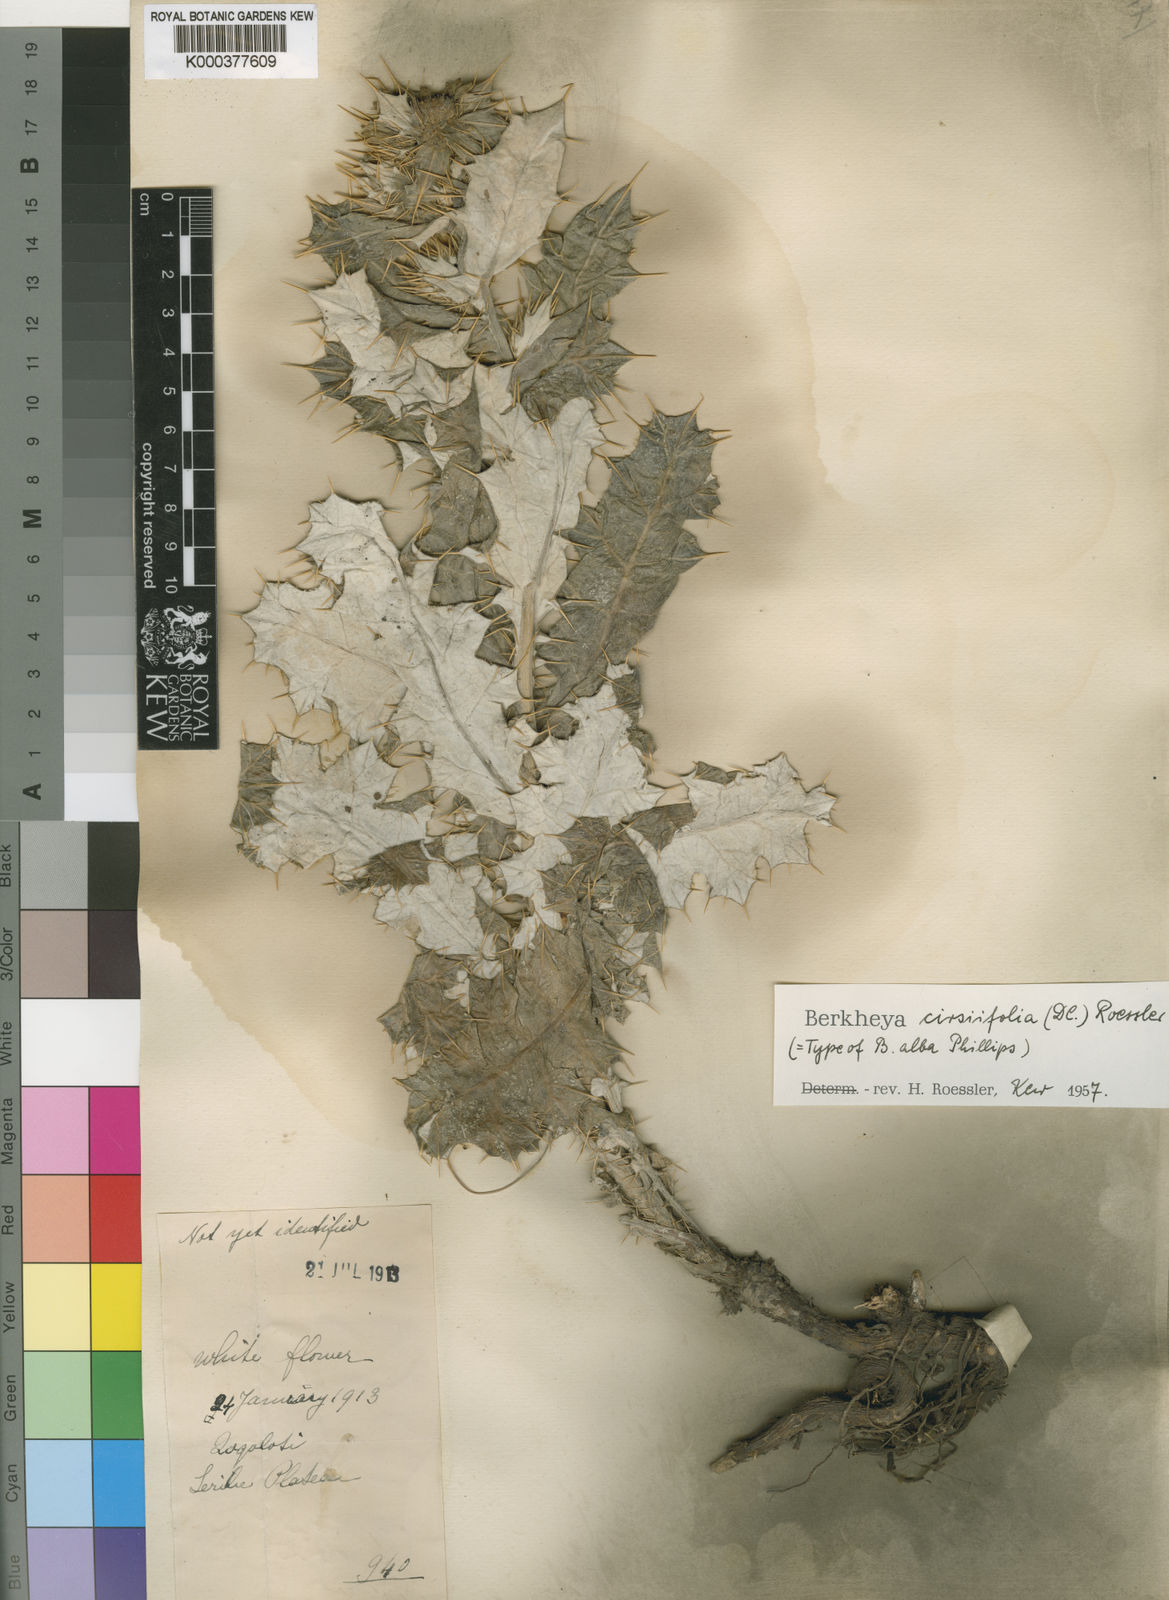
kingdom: Plantae
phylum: Tracheophyta
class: Magnoliopsida
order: Asterales
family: Asteraceae
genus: Berkheya
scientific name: Berkheya cirsiifolia
